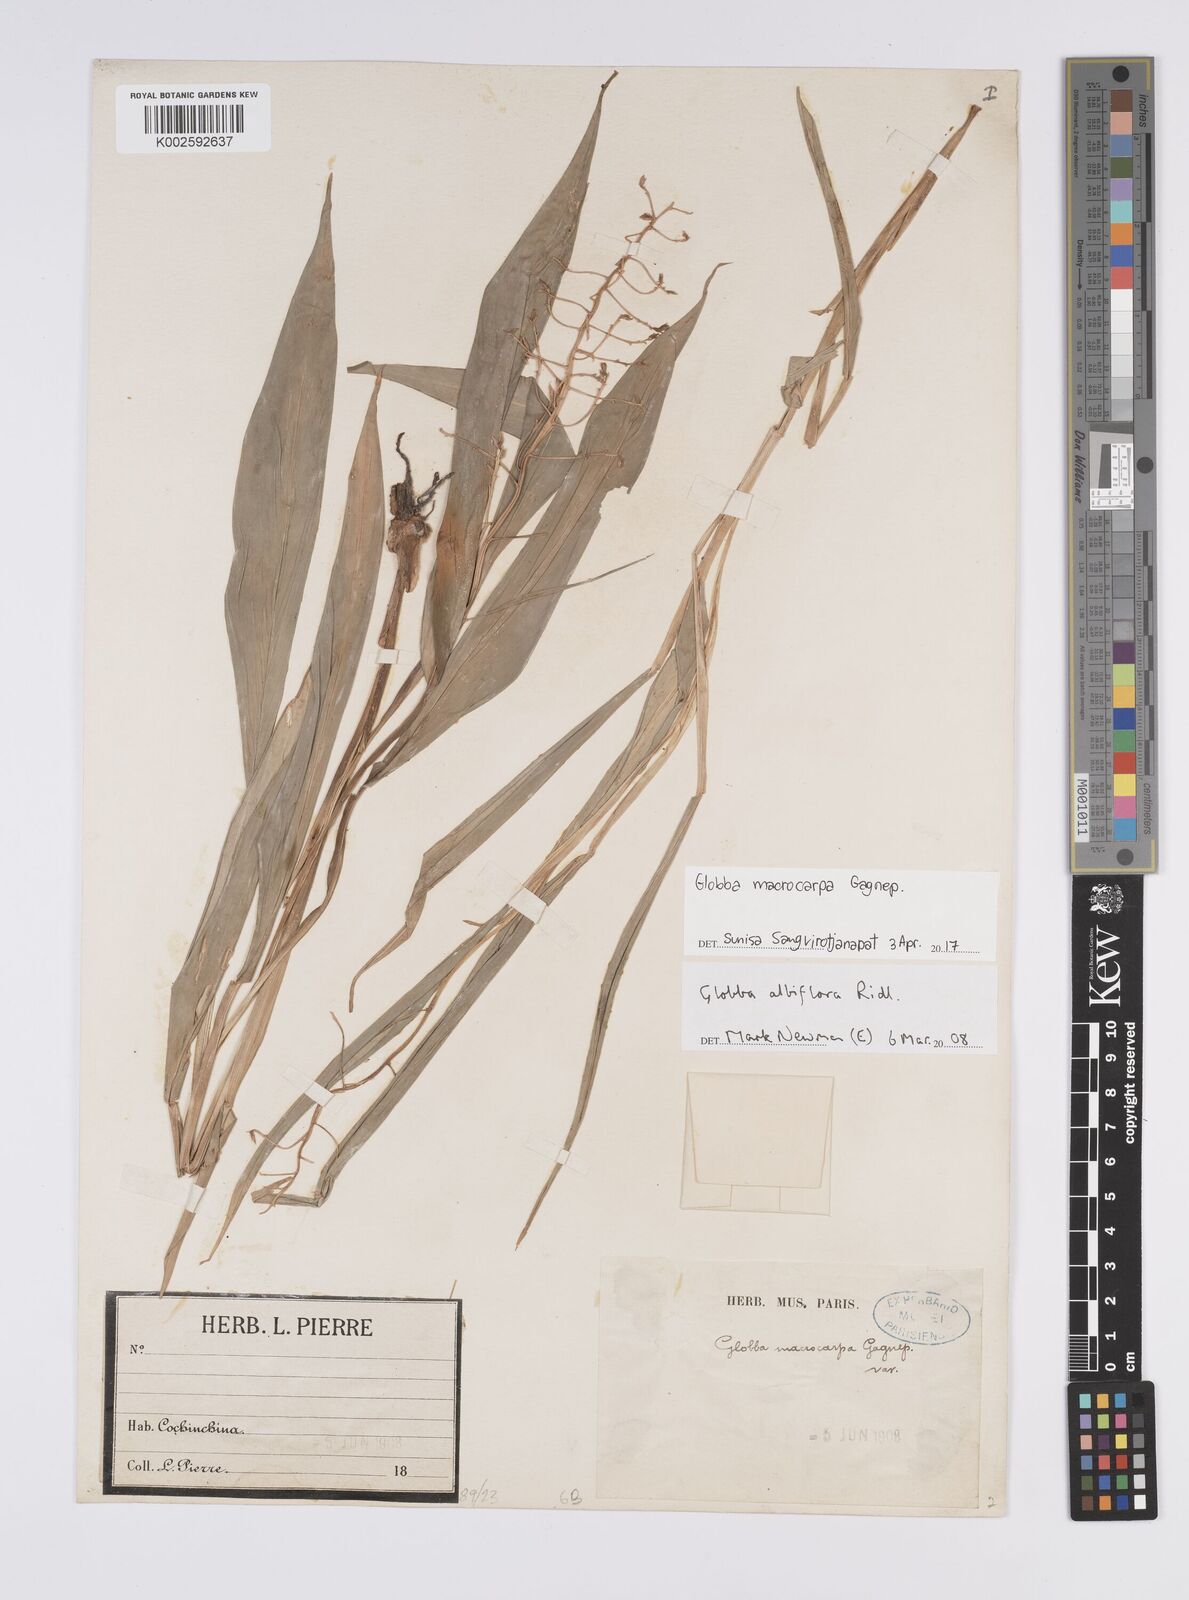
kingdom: Plantae
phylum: Tracheophyta
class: Liliopsida
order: Zingiberales
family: Zingiberaceae
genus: Globba
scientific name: Globba macrocarpa
